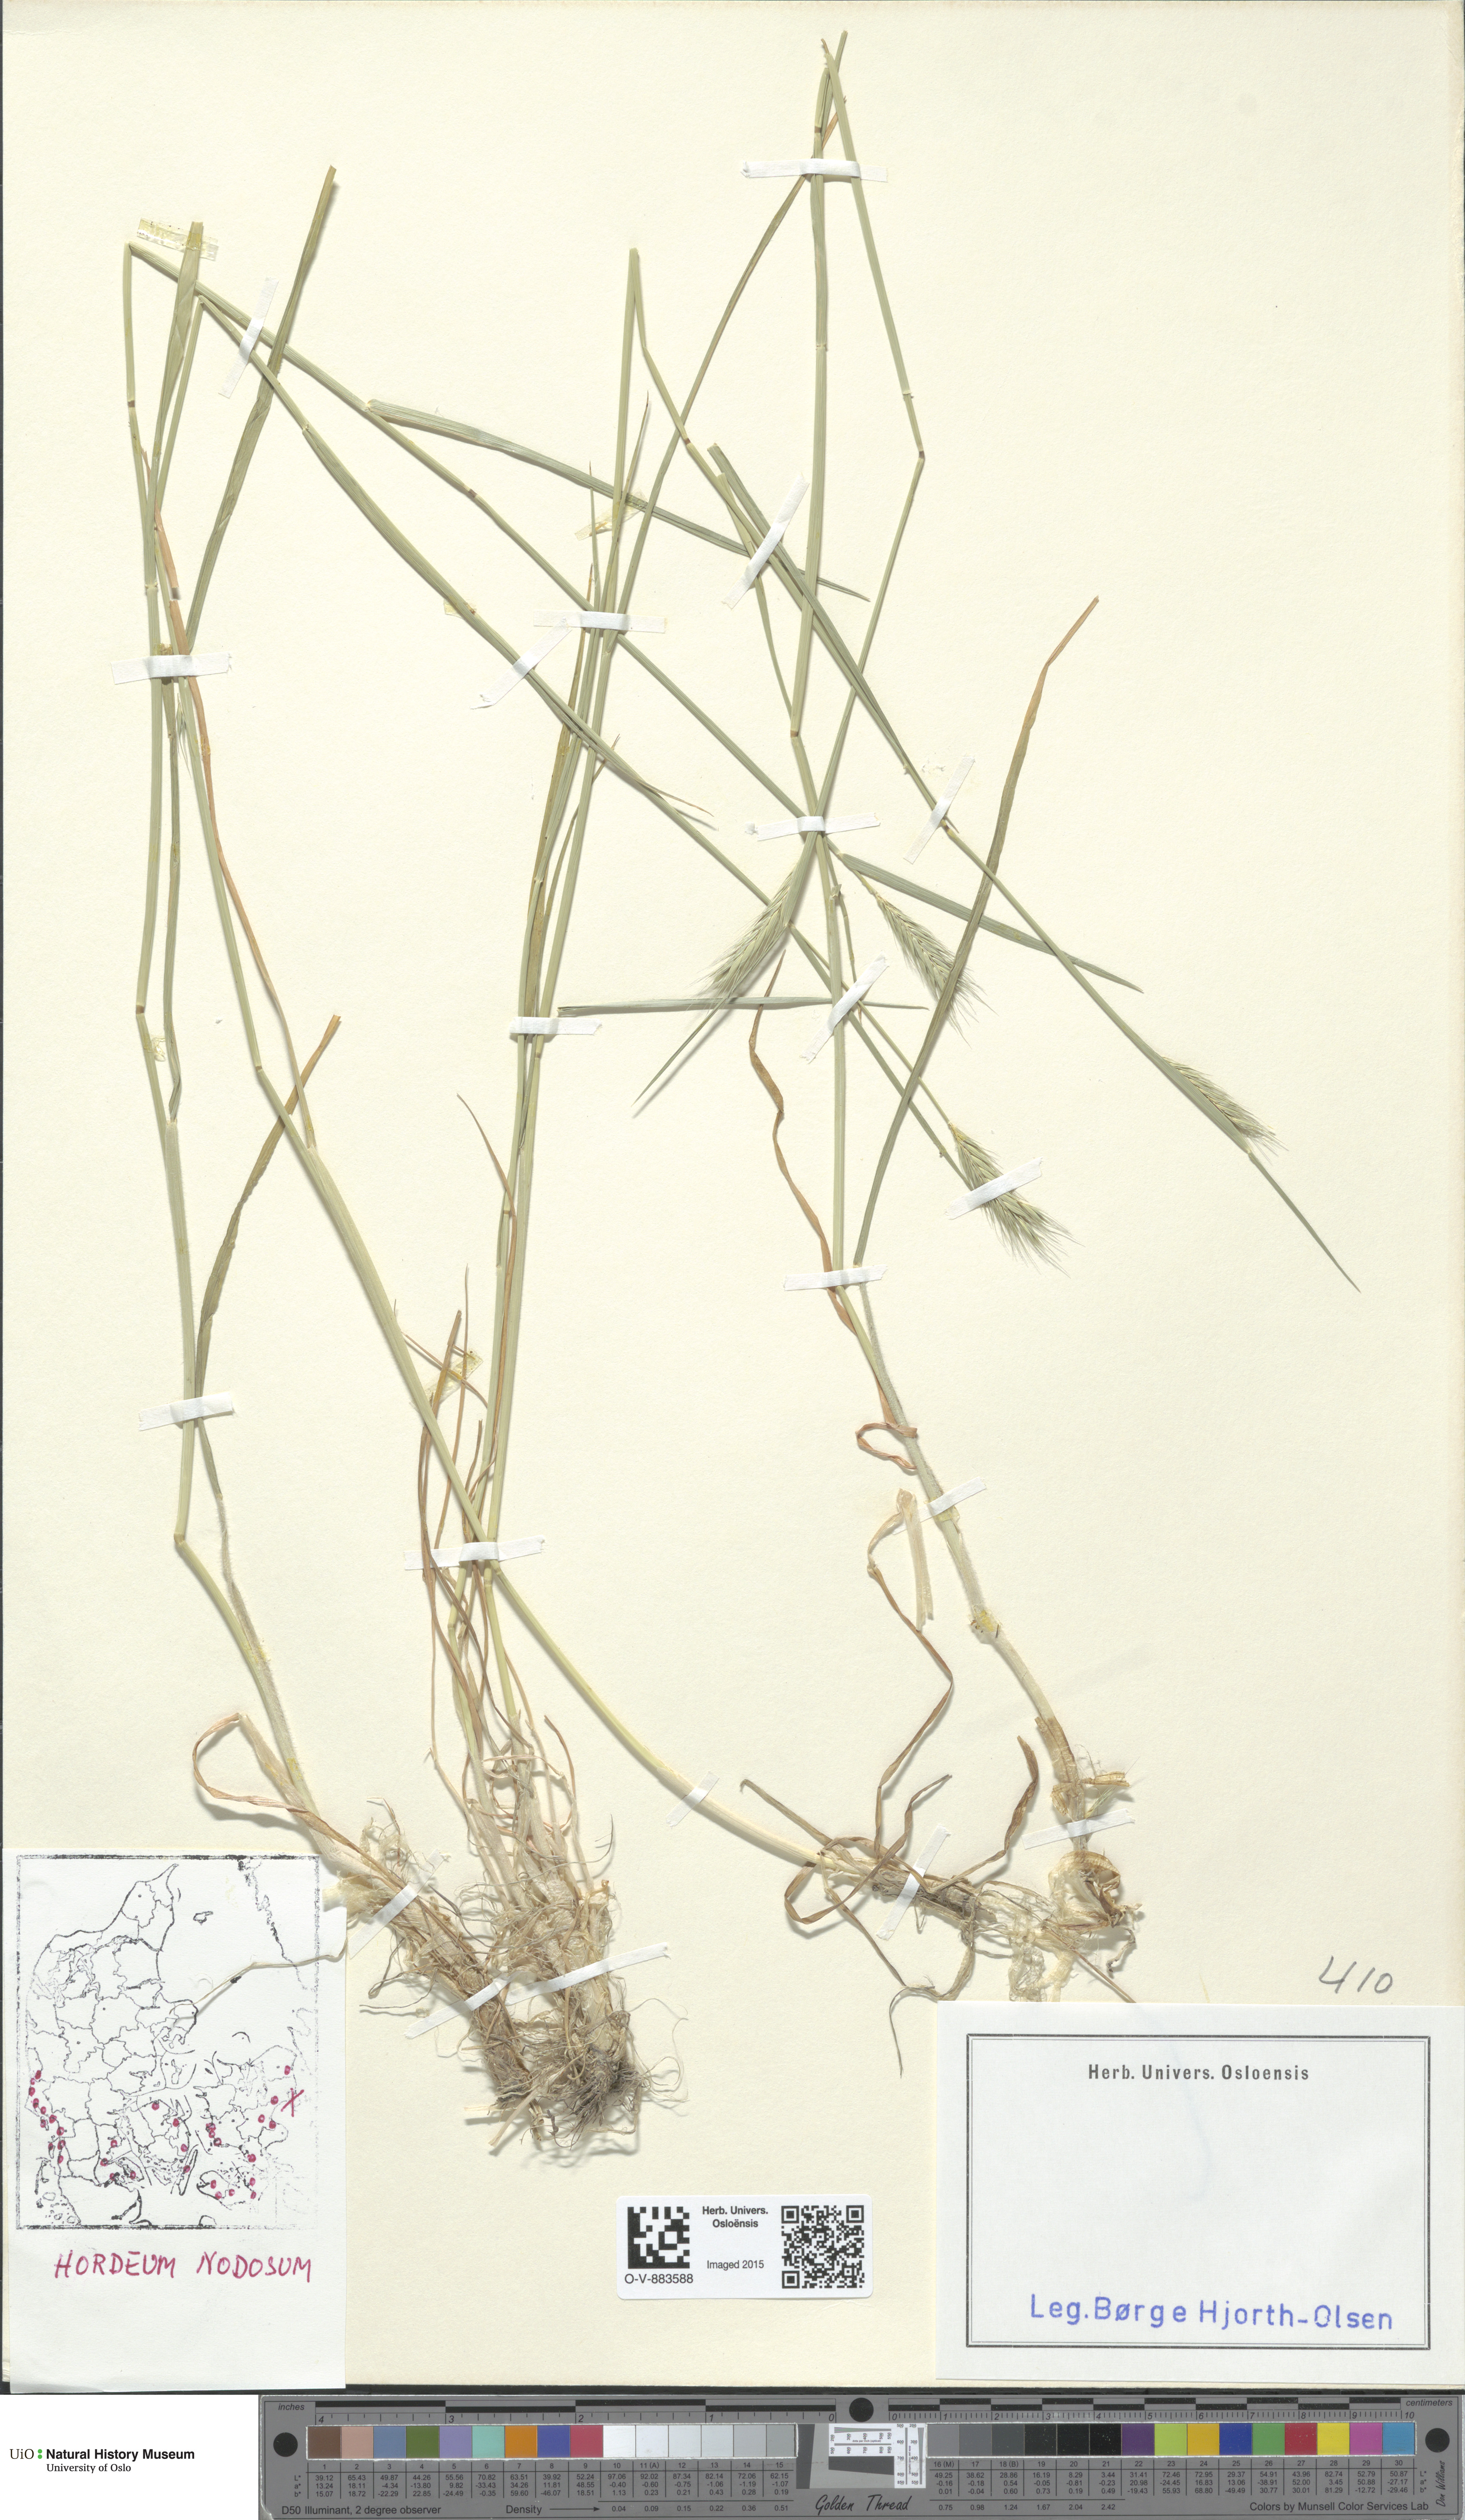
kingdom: Plantae
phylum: Tracheophyta
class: Liliopsida
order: Poales
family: Poaceae
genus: Hordeum
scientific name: Hordeum secalinum
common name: Meadow barley
